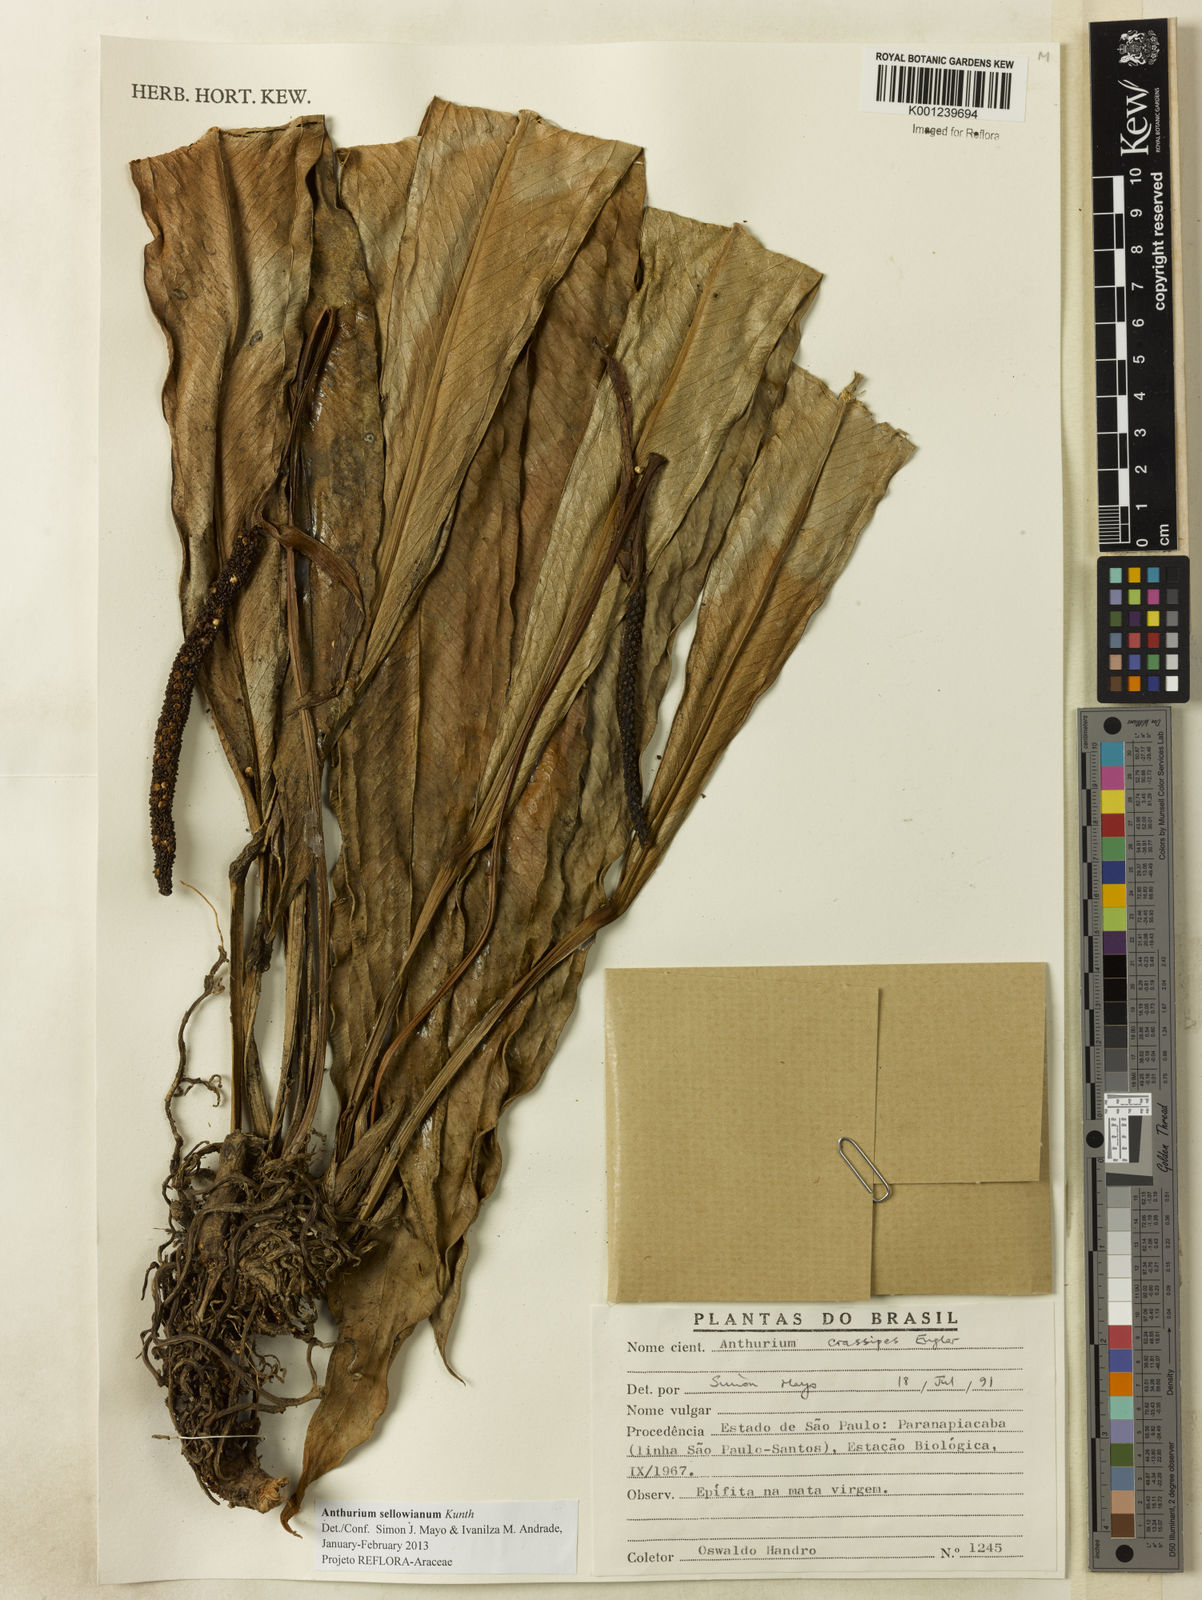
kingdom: Plantae
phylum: Tracheophyta
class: Liliopsida
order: Alismatales
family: Araceae
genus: Anthurium
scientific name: Anthurium sellowianum
